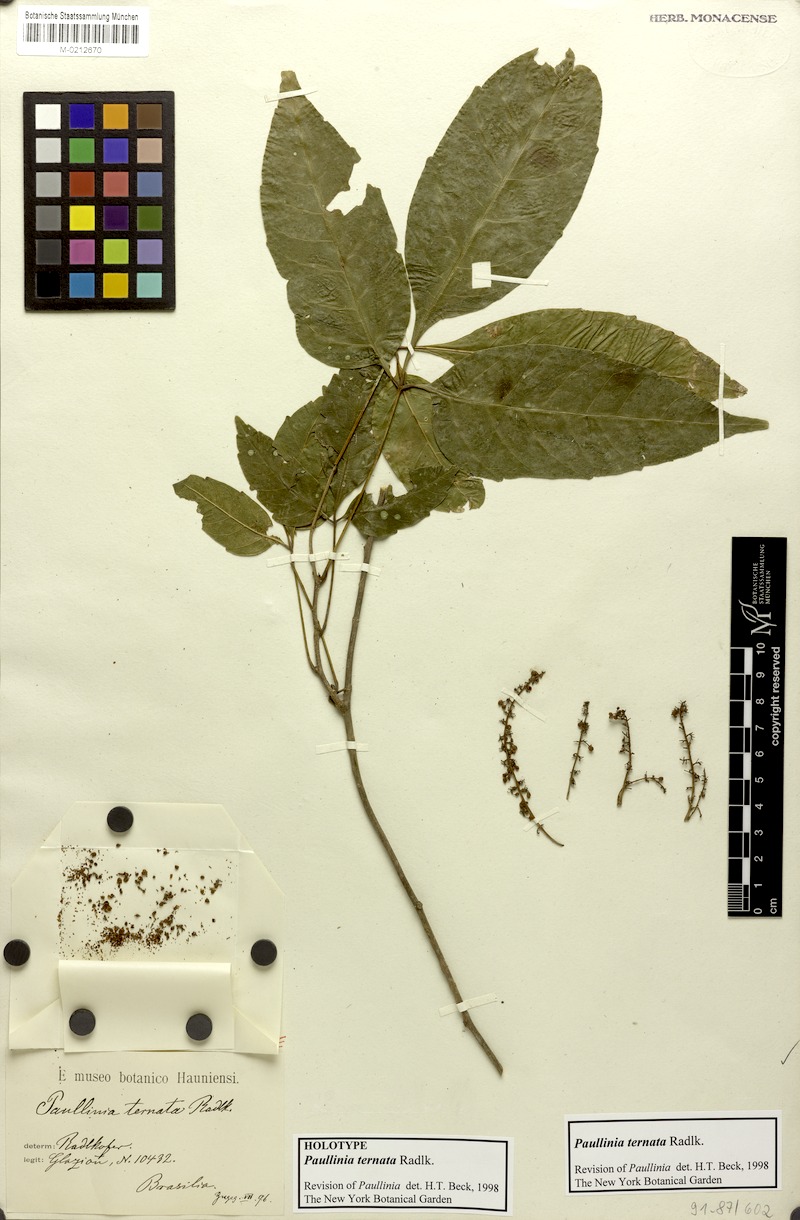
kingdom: Plantae
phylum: Tracheophyta
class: Magnoliopsida
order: Sapindales
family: Sapindaceae
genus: Paullinia
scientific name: Paullinia ternata
